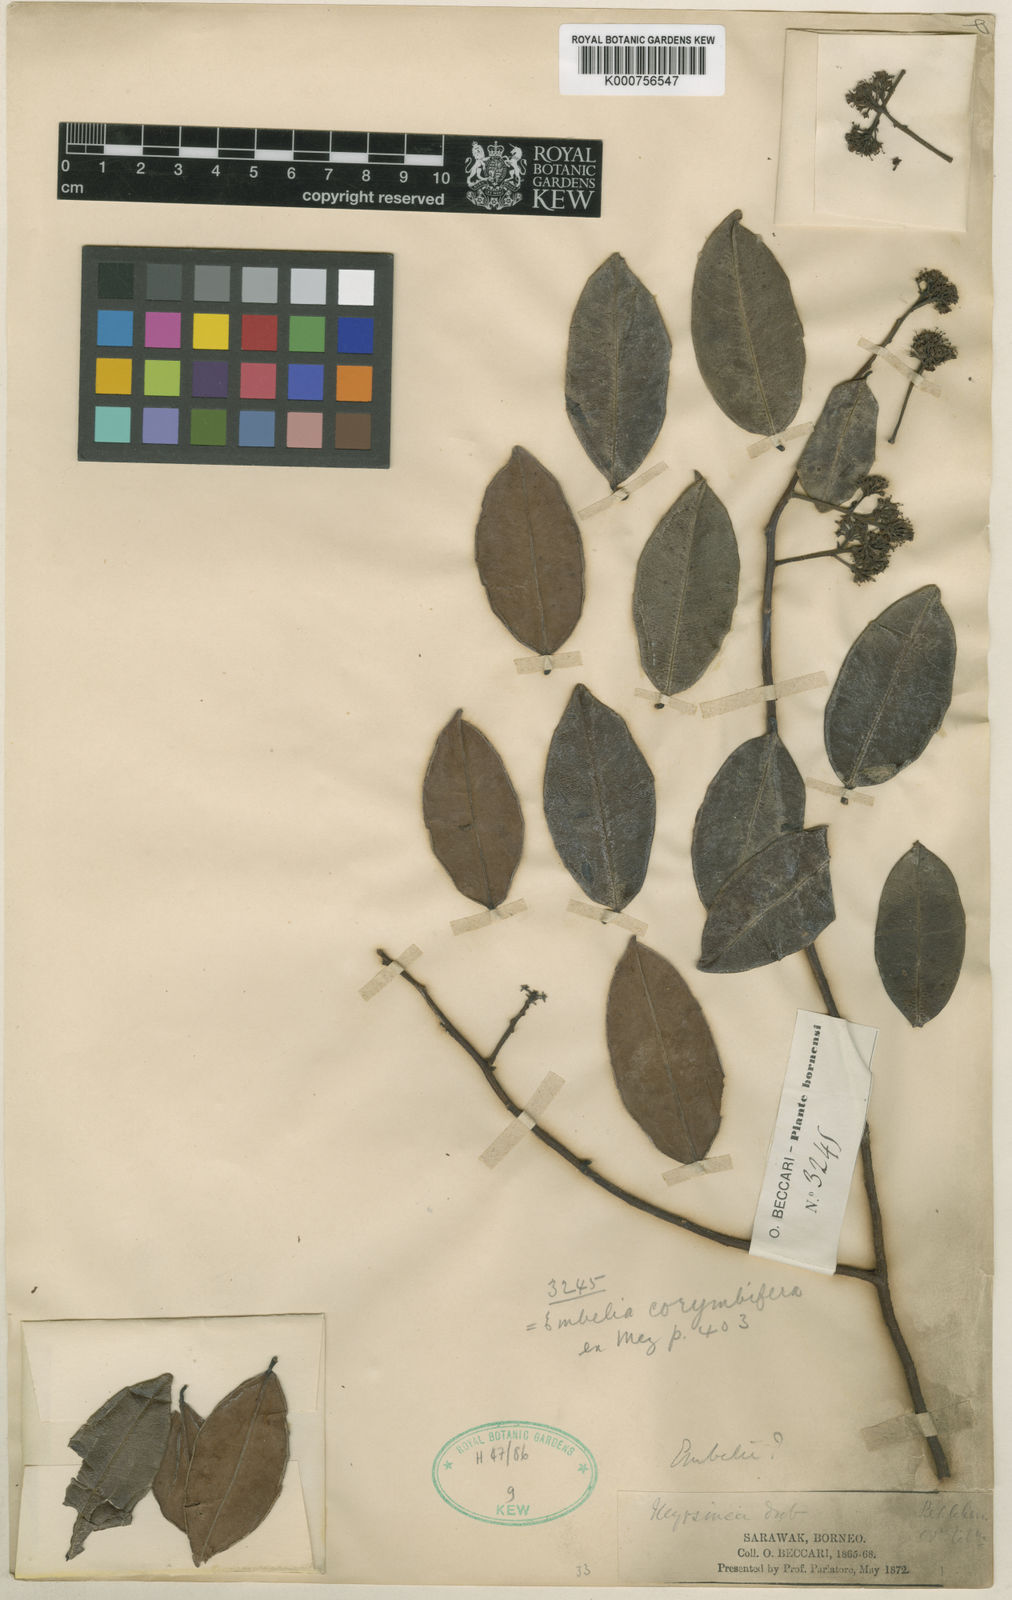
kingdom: Plantae
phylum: Tracheophyta
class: Magnoliopsida
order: Ericales
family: Primulaceae
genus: Embelia
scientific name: Embelia corymbifera
